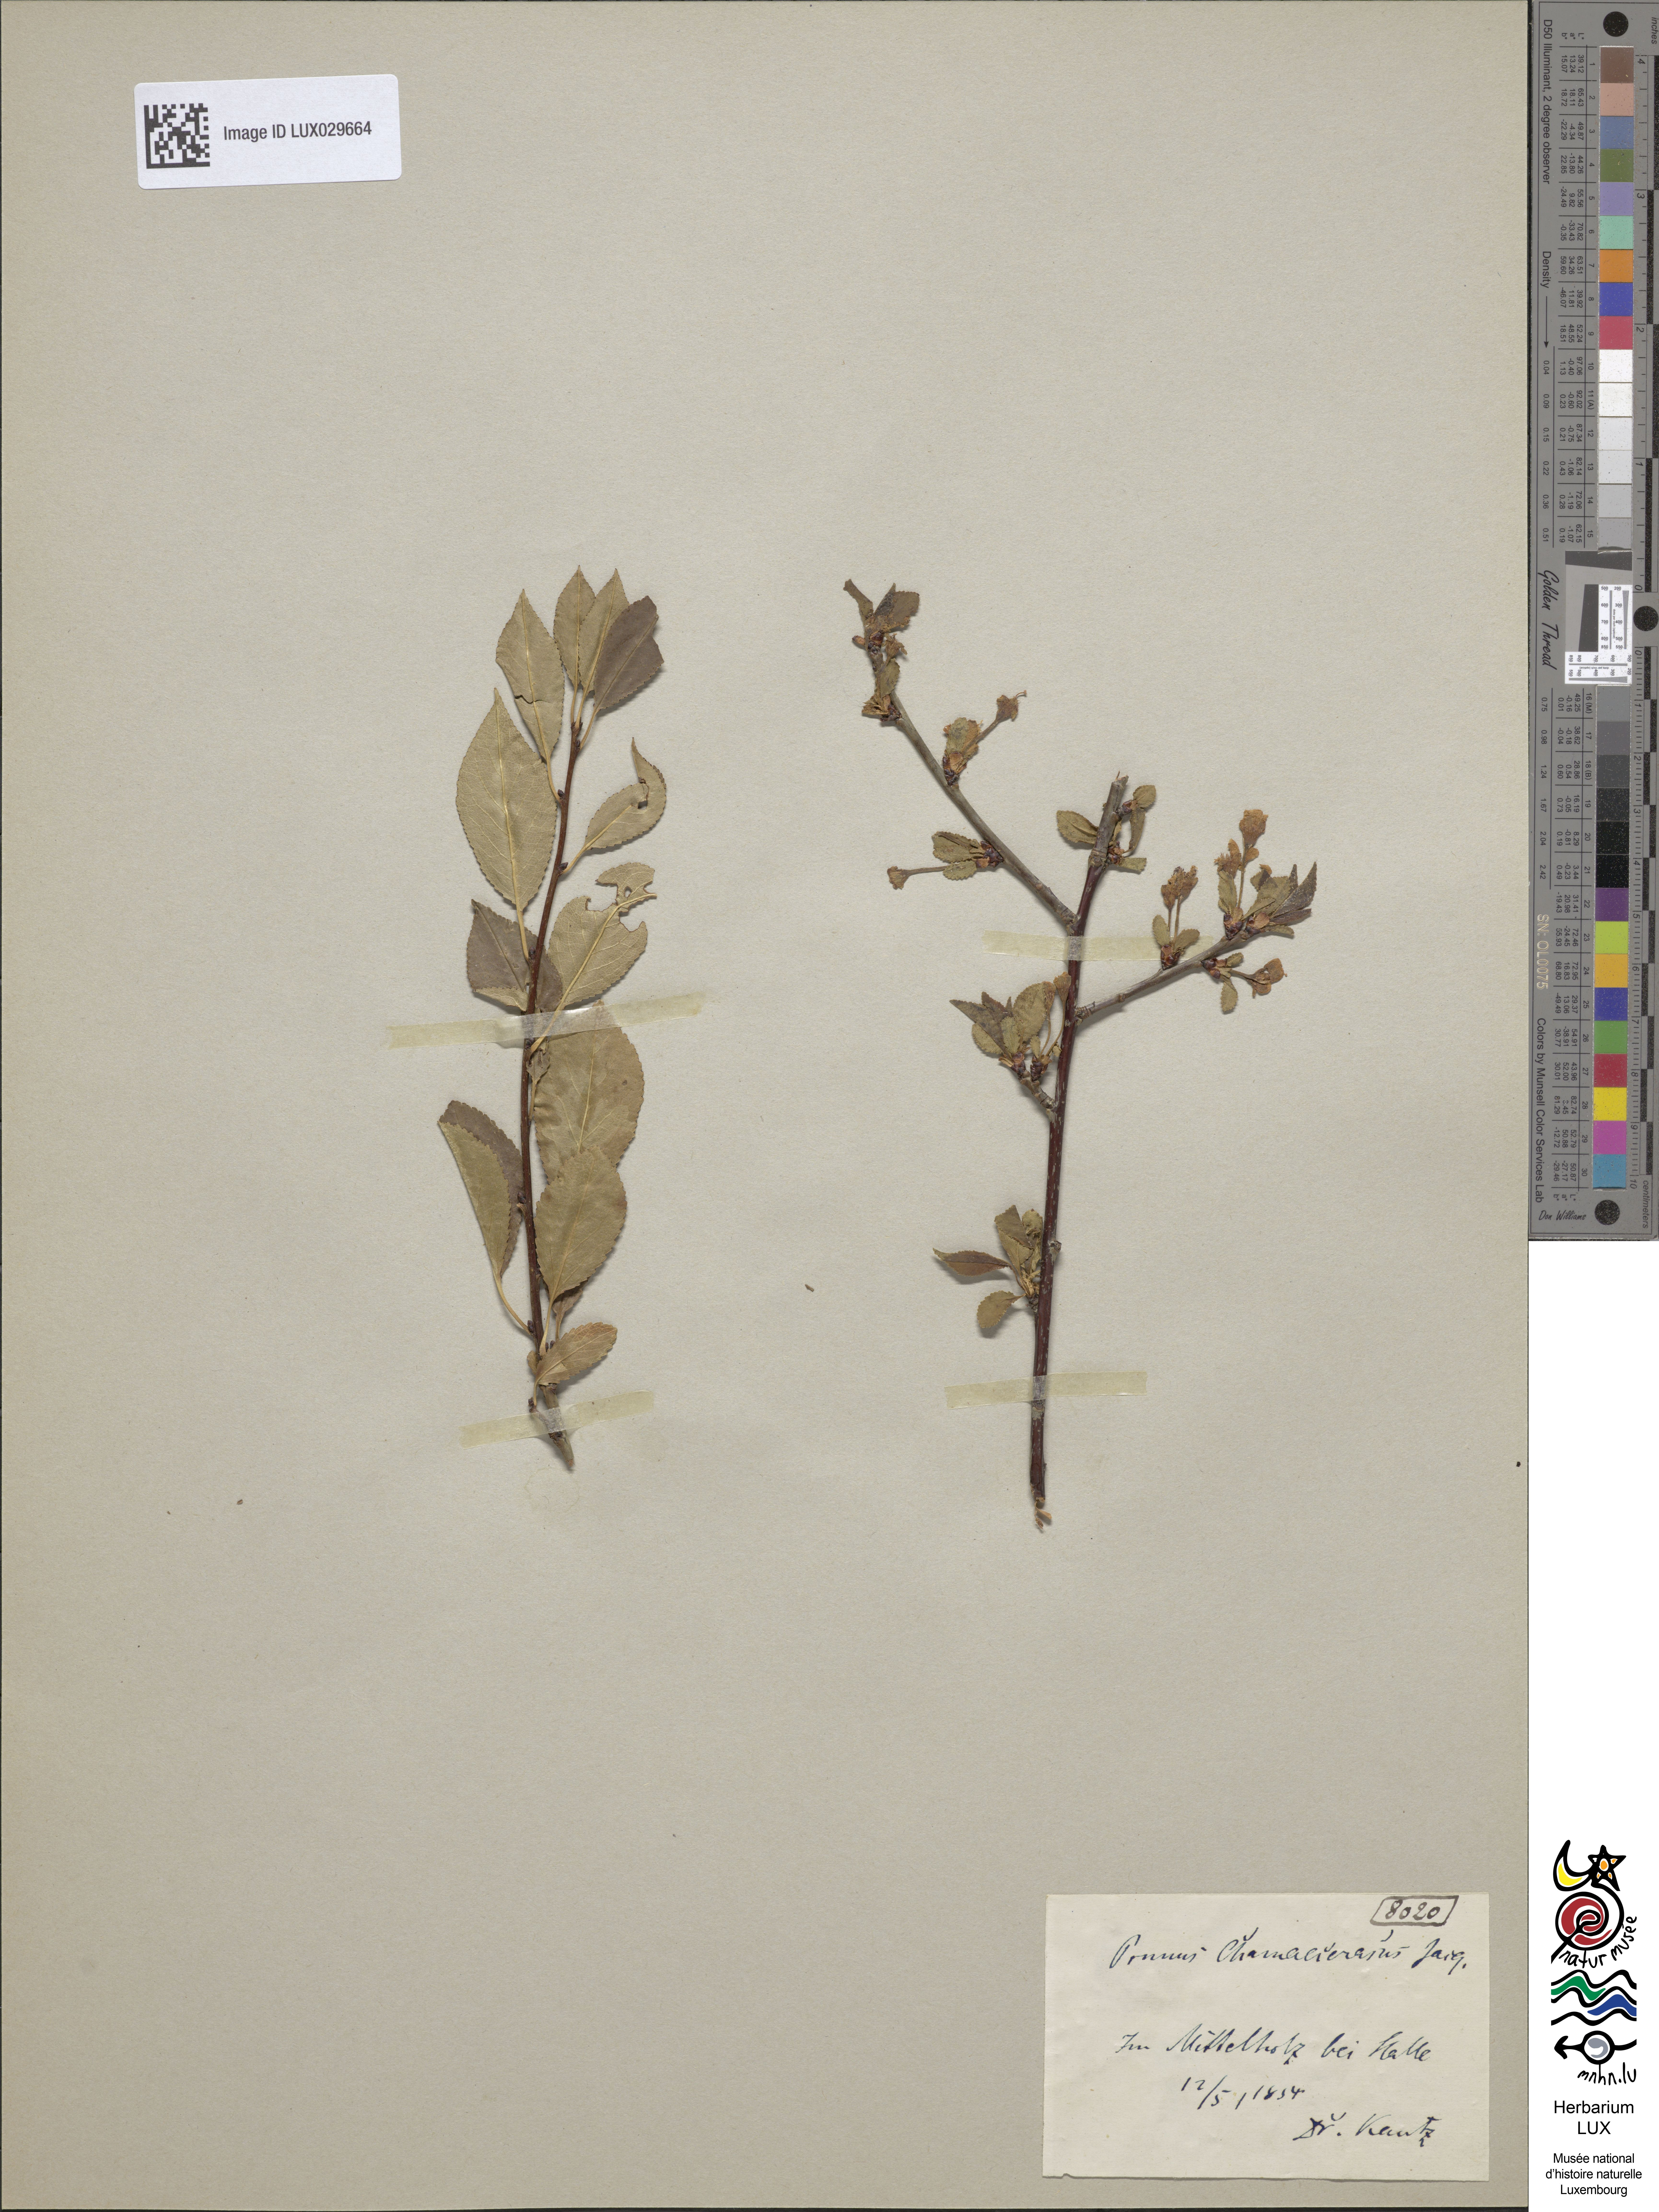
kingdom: Plantae
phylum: Tracheophyta
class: Magnoliopsida
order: Rosales
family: Rosaceae
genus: Prunus
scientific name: Prunus eminens
